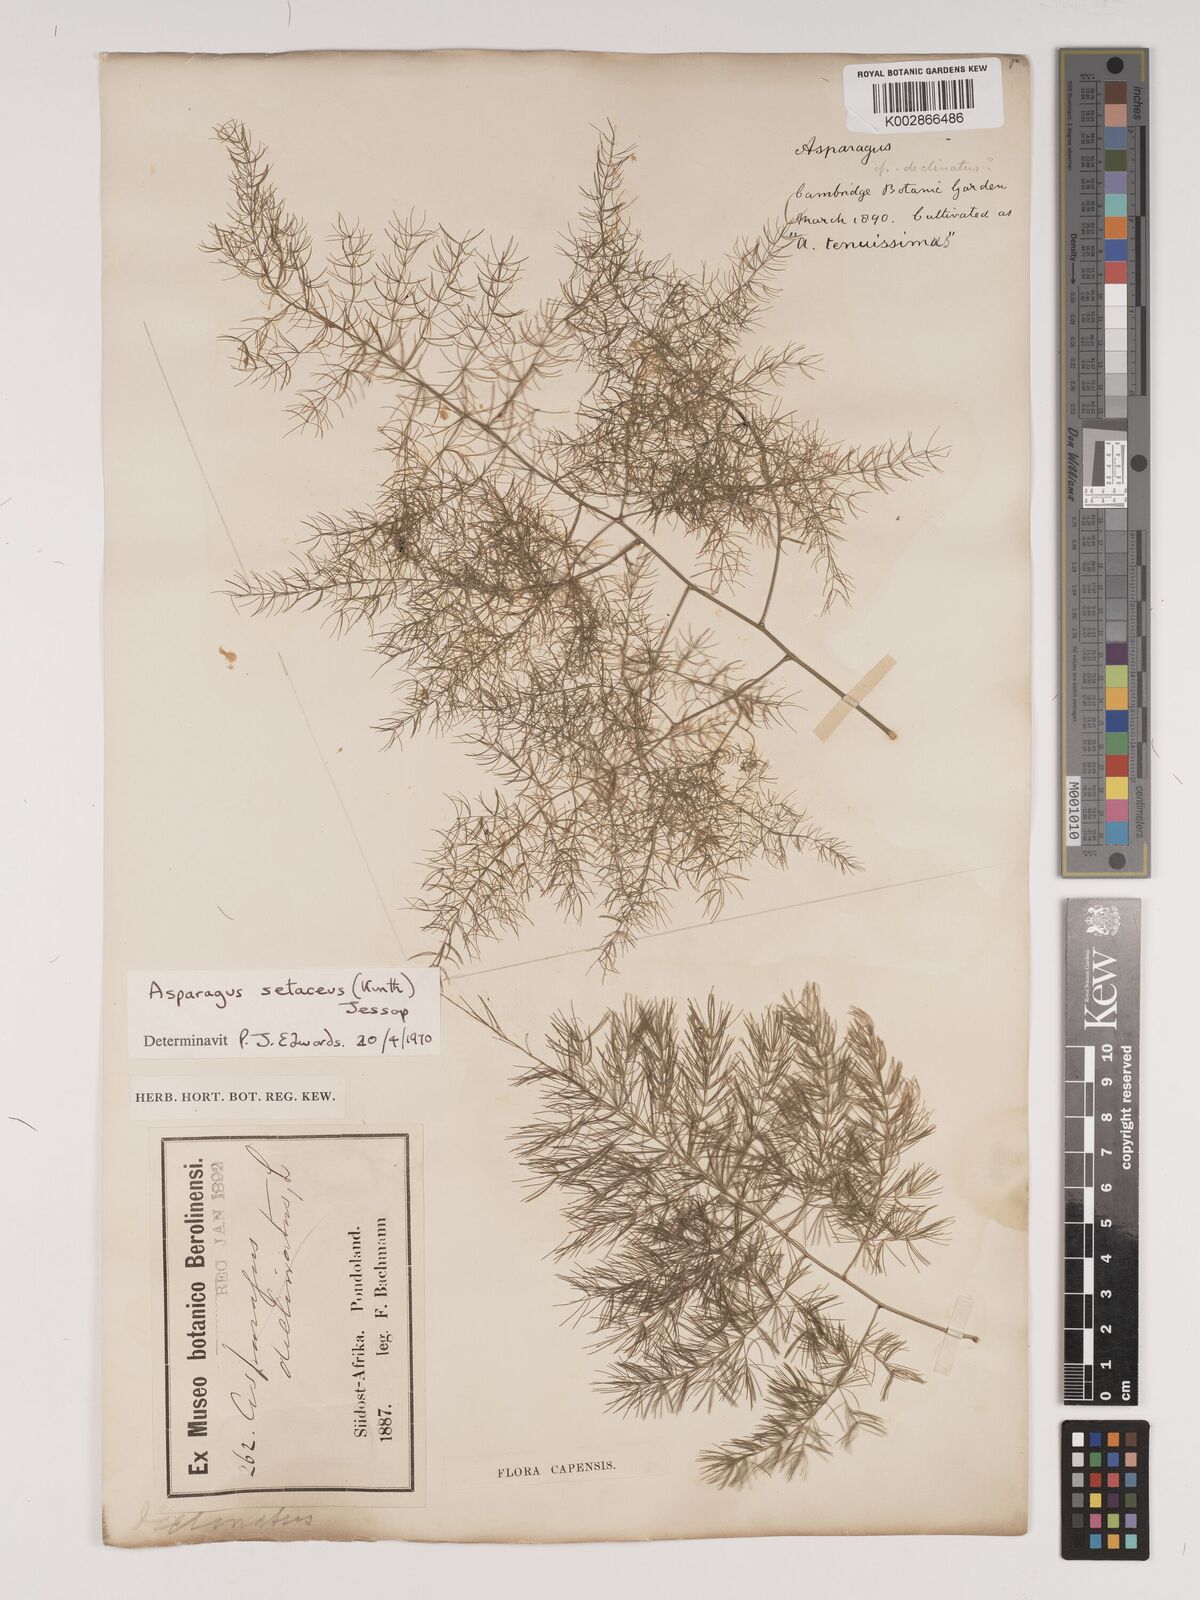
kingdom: Plantae
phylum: Tracheophyta
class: Liliopsida
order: Asparagales
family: Asparagaceae
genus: Asparagus
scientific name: Asparagus setaceus
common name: Common asparagus fern
